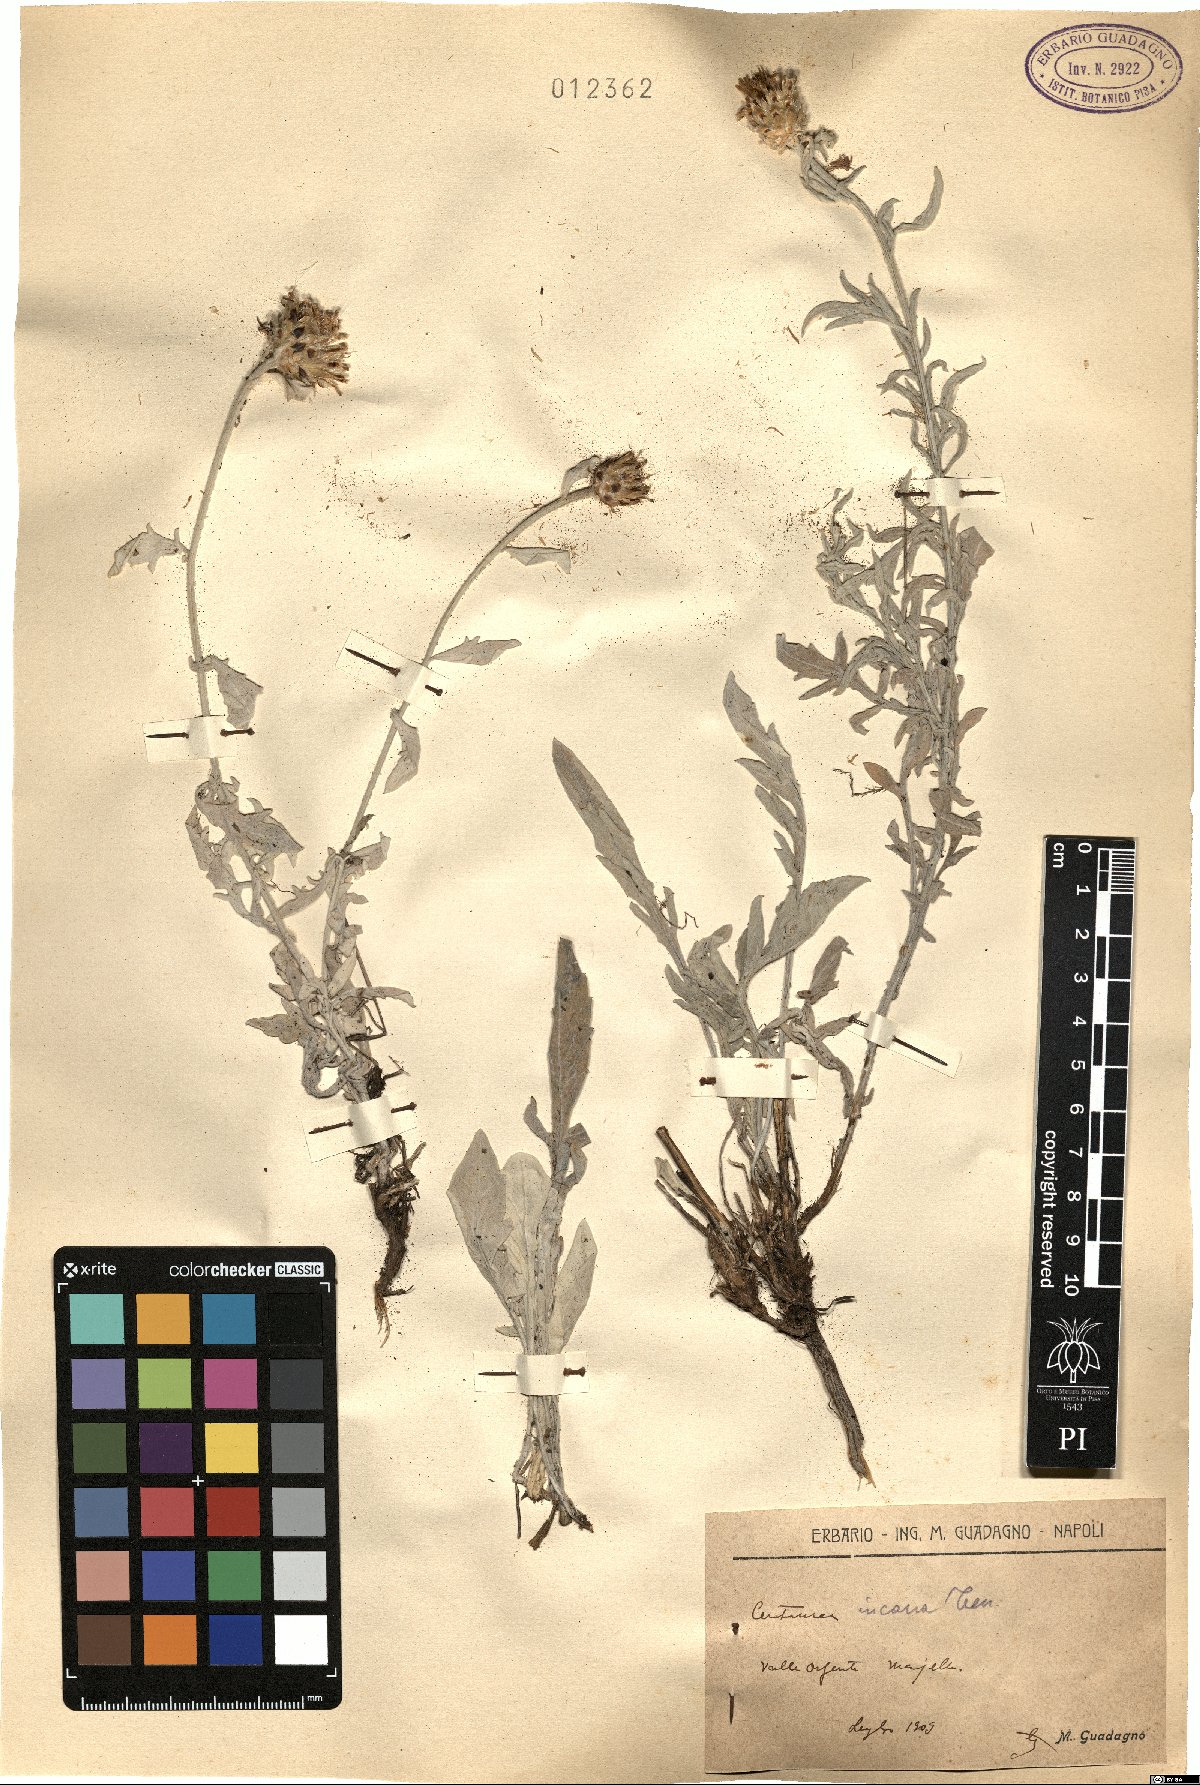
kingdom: Plantae
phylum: Tracheophyta
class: Magnoliopsida
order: Asterales
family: Asteraceae
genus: Centaurea
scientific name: Centaurea tenoreana
